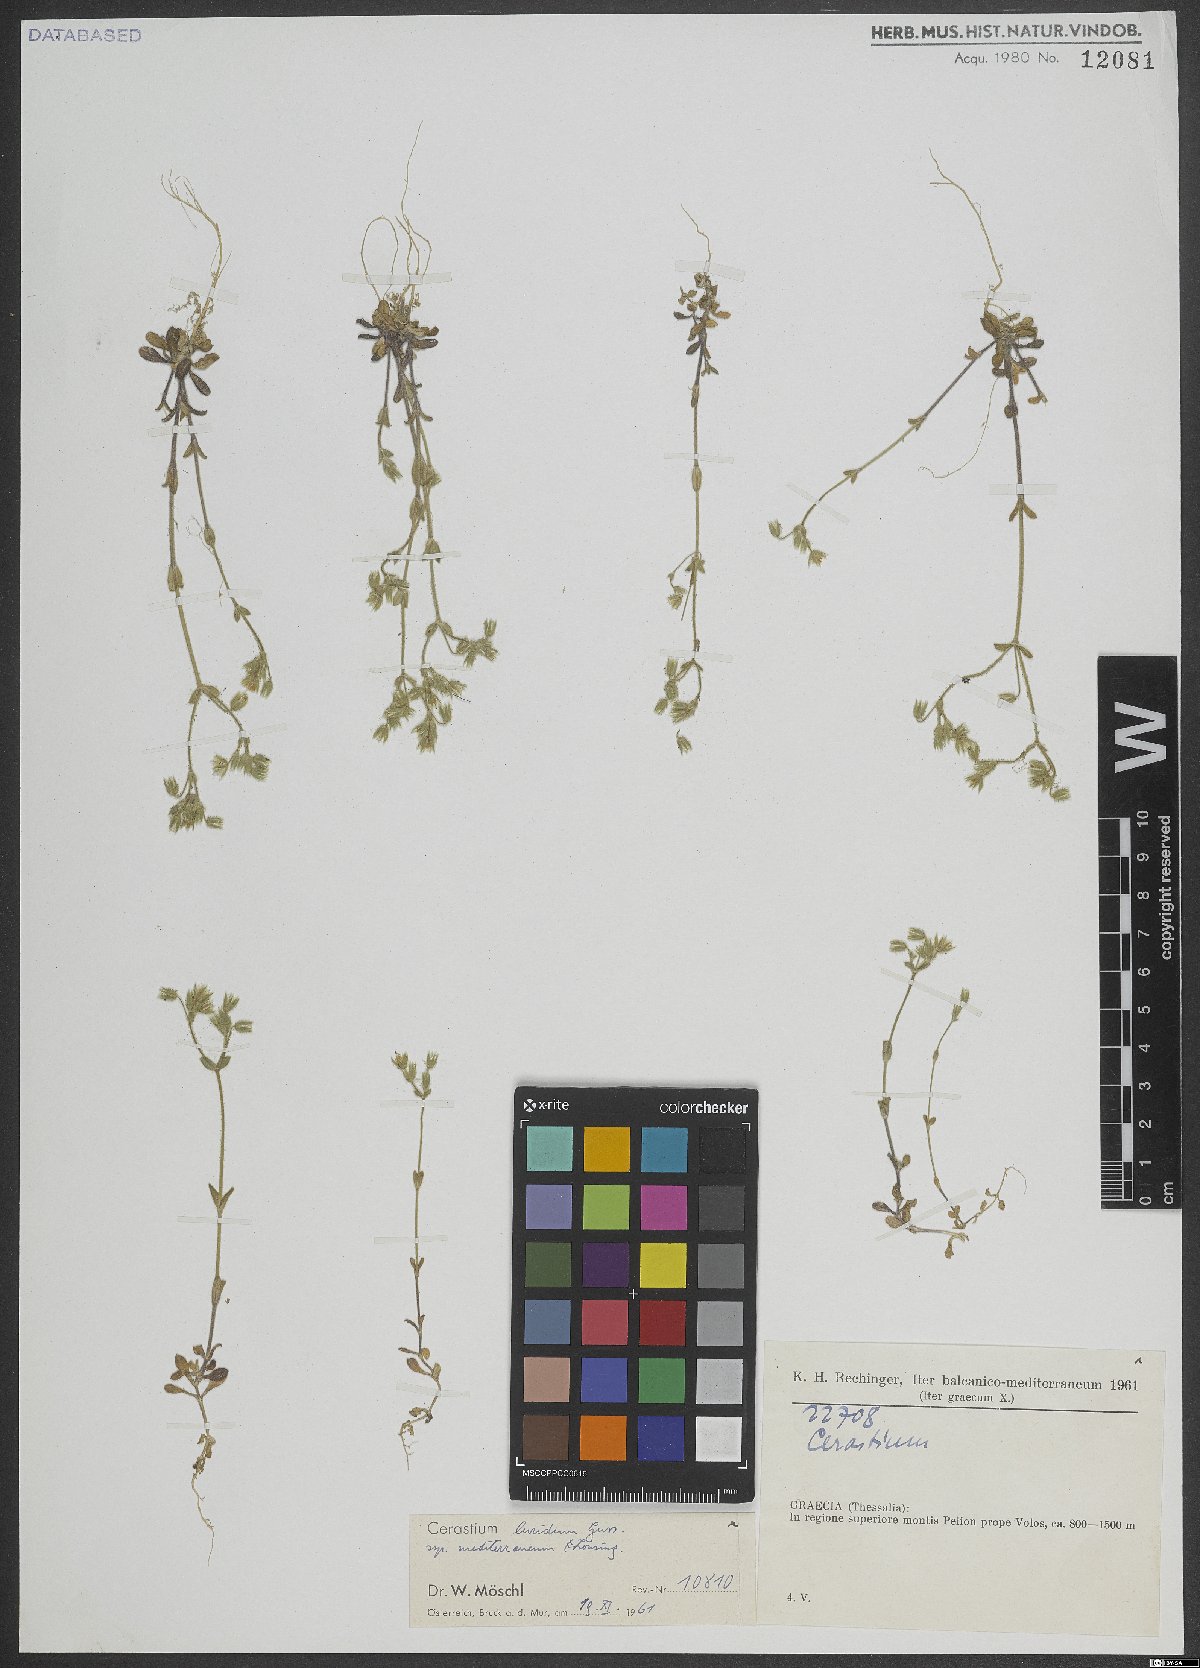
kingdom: Plantae
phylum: Tracheophyta
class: Magnoliopsida
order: Caryophyllales
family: Caryophyllaceae
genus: Cerastium
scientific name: Cerastium brachypetalum
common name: Grey mouse-ear
